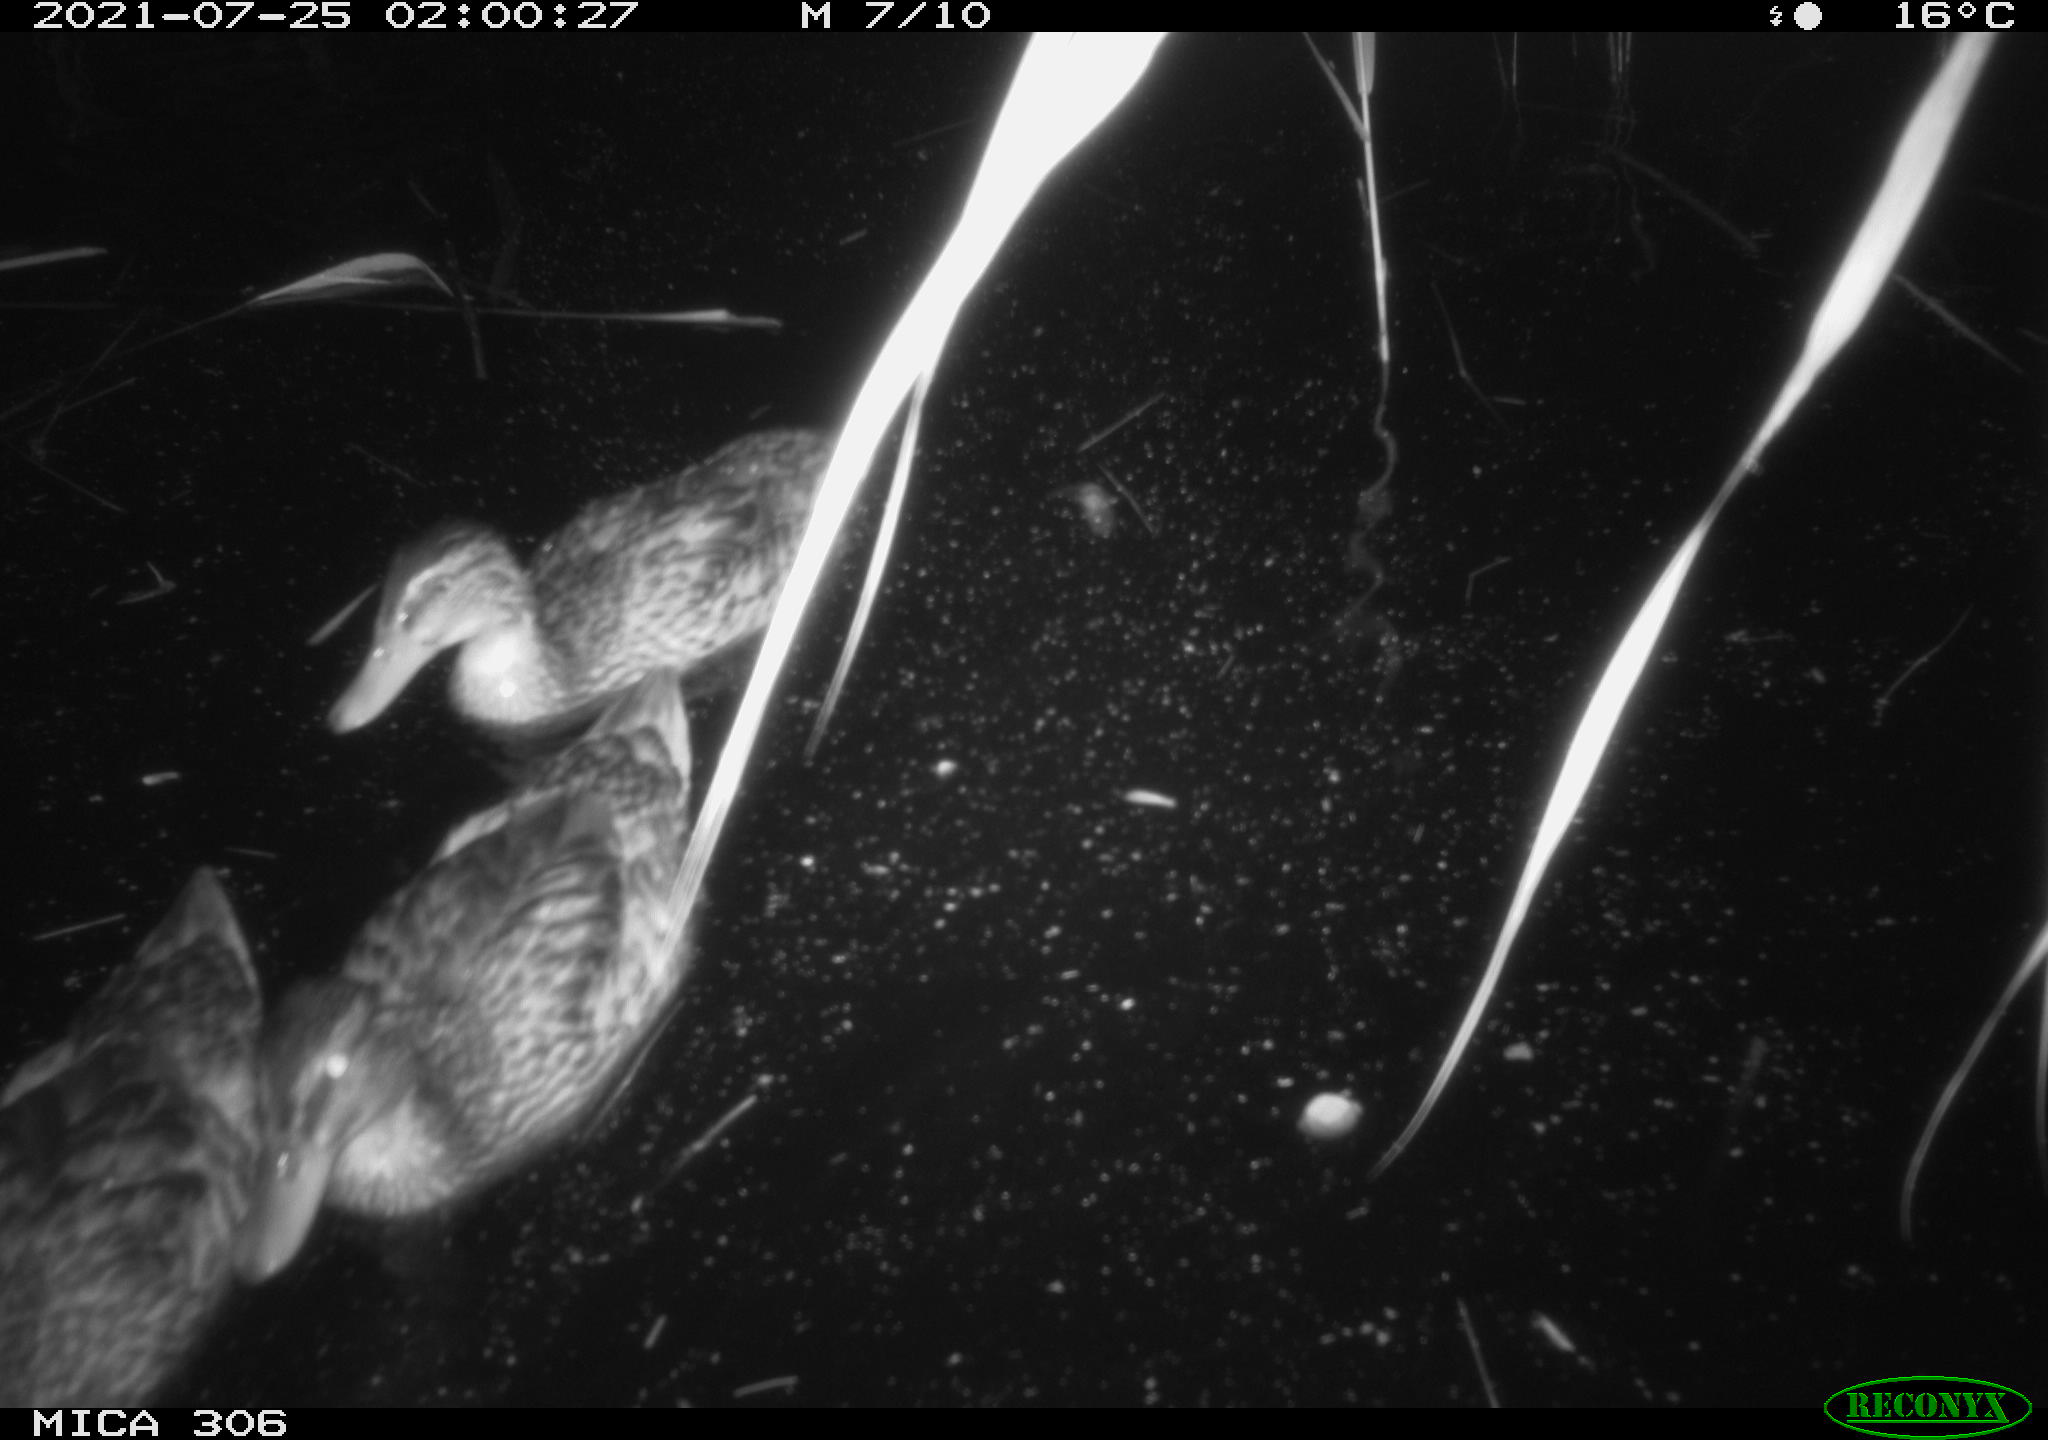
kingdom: Animalia
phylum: Chordata
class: Aves
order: Anseriformes
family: Anatidae
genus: Anas
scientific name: Anas platyrhynchos
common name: Mallard
